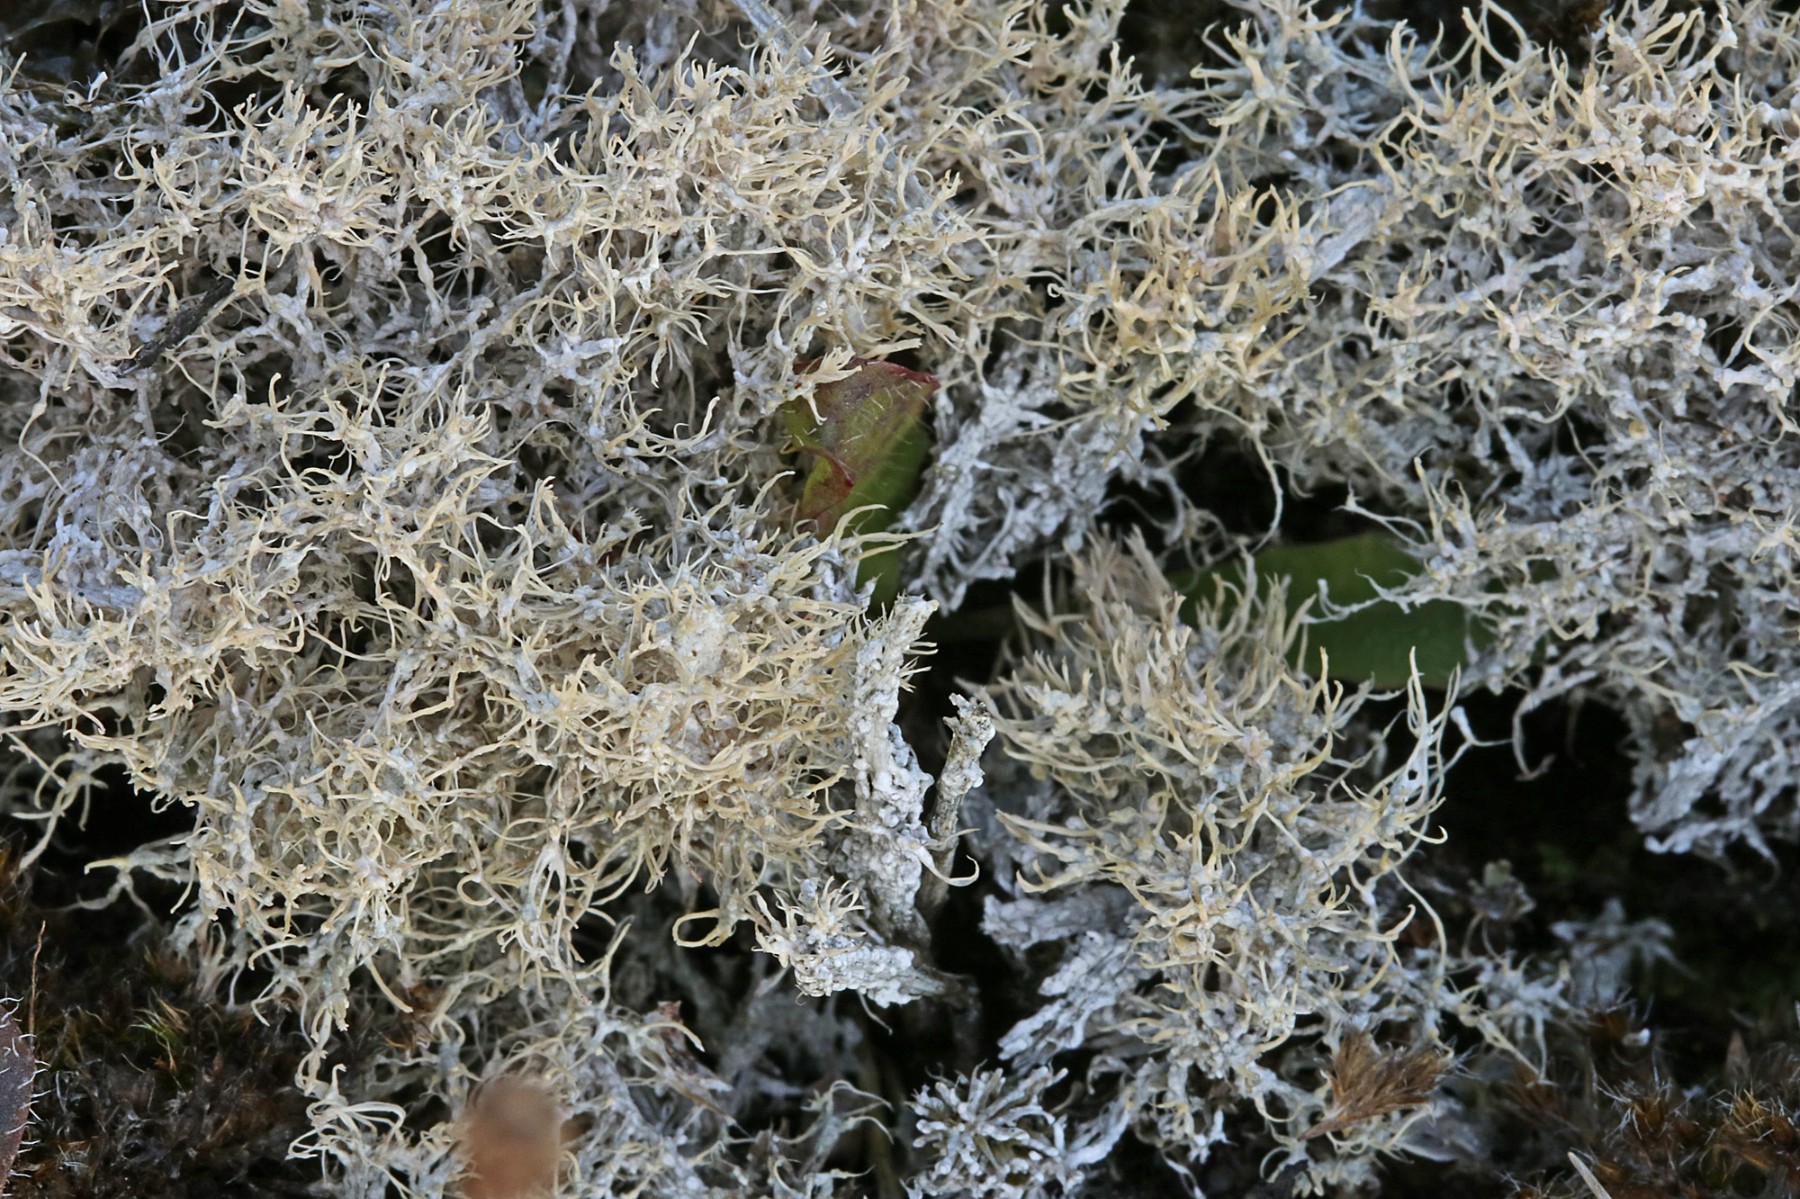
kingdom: Fungi
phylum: Ascomycota
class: Lecanoromycetes
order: Pertusariales
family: Ochrolechiaceae
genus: Ochrolechia
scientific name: Ochrolechia frigida
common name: fjeld-blegskivelav
